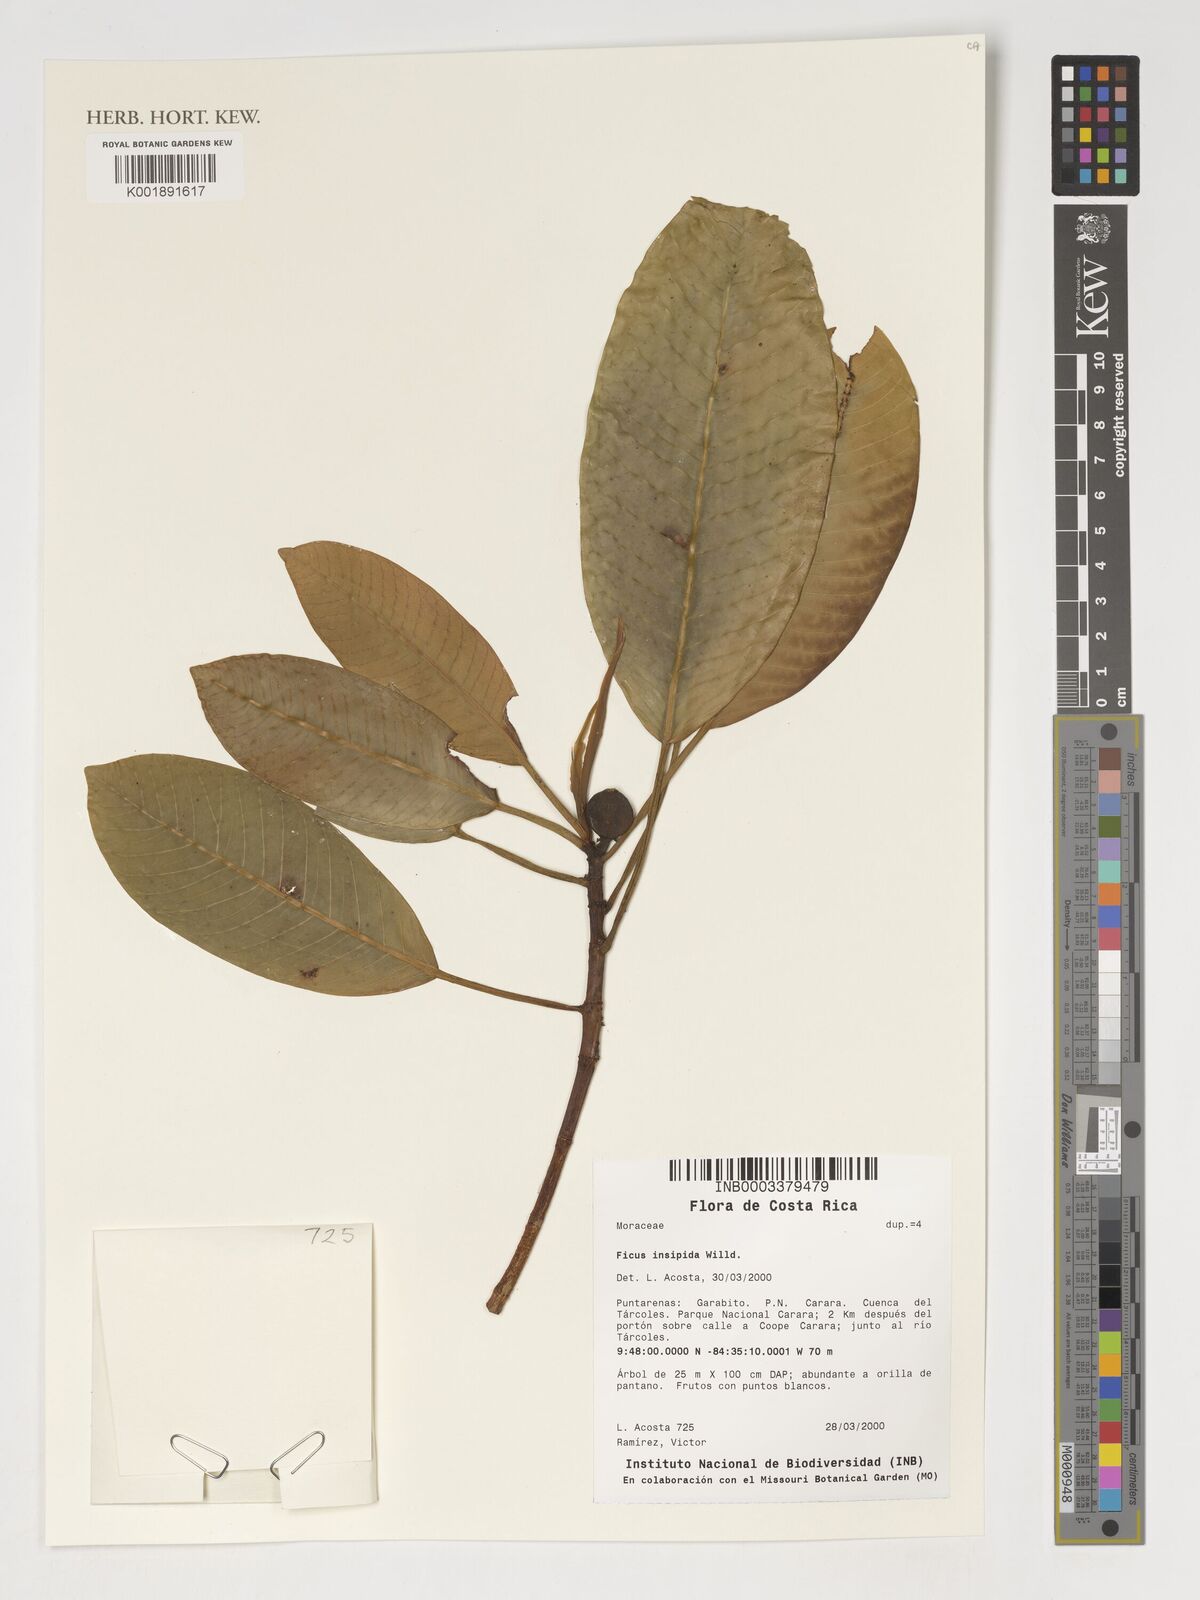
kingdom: Plantae
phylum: Tracheophyta
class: Magnoliopsida
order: Rosales
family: Moraceae
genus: Ficus
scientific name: Ficus insipida
